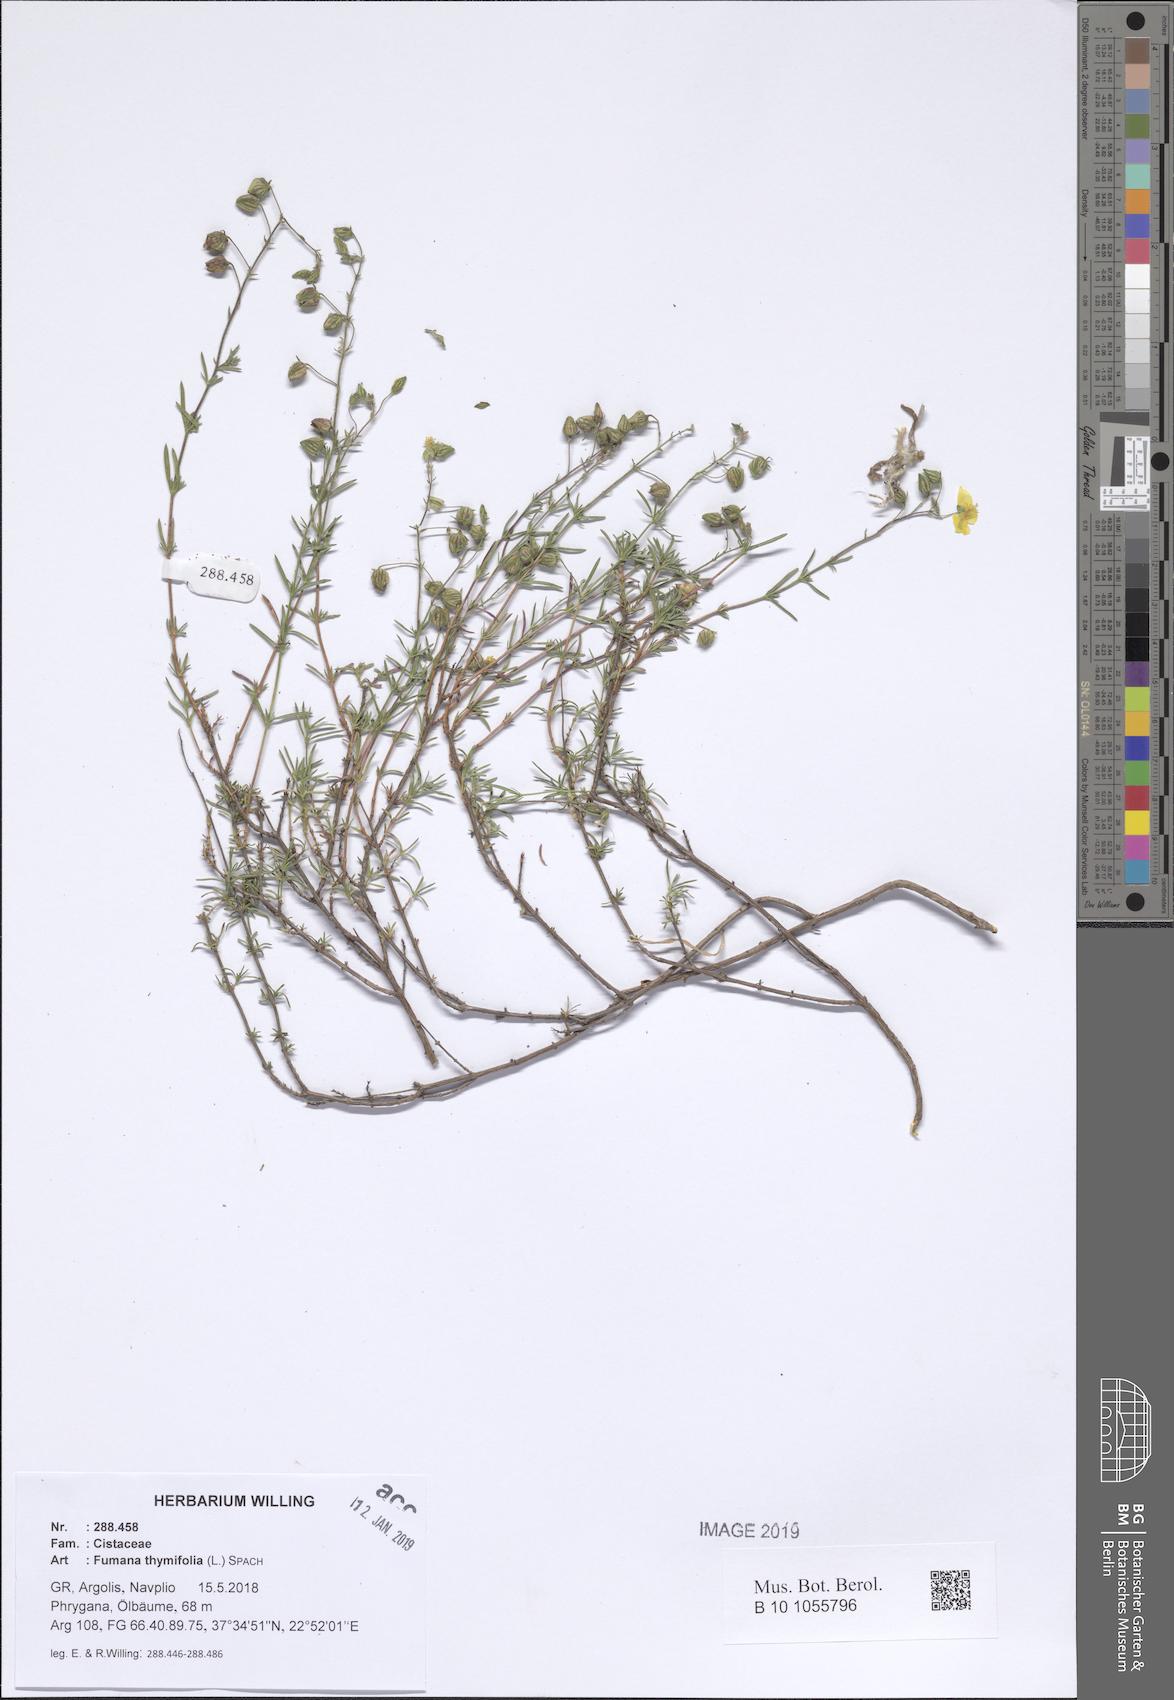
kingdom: Plantae
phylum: Tracheophyta
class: Magnoliopsida
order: Malvales
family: Cistaceae
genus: Fumana
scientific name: Fumana thymifolia
